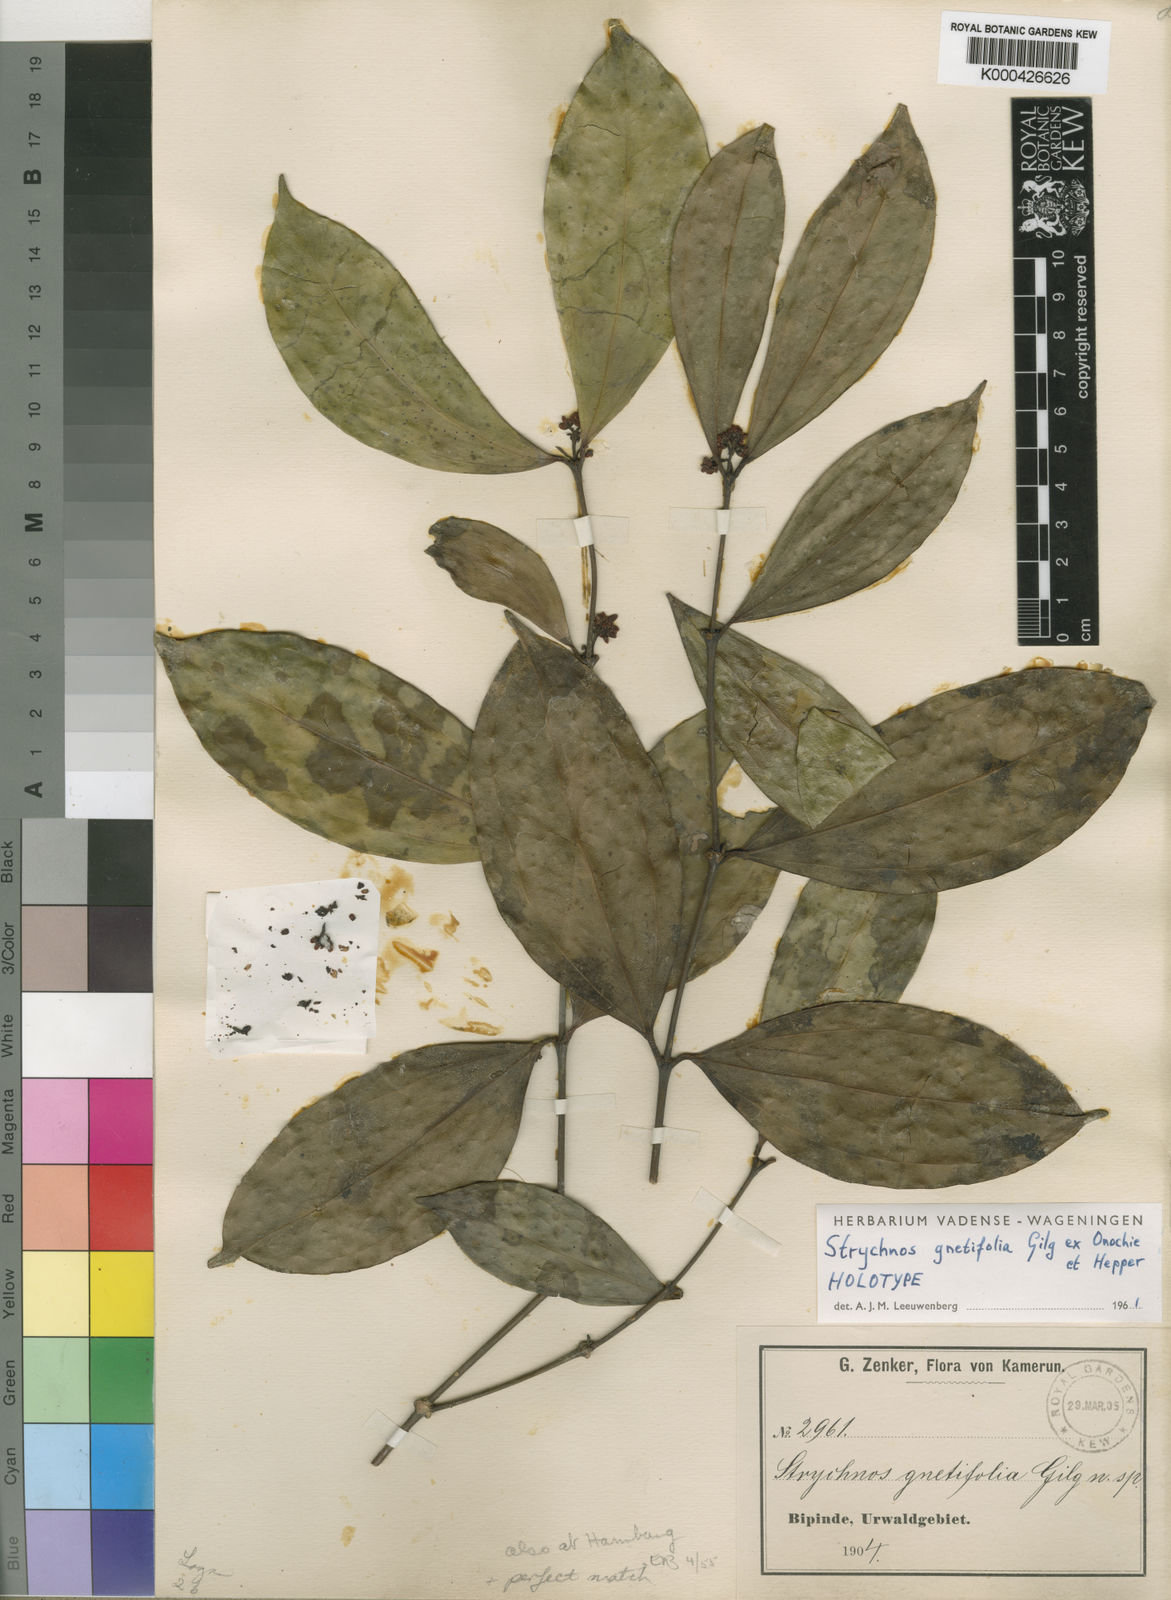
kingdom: Plantae
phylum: Tracheophyta
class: Magnoliopsida
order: Gentianales
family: Loganiaceae
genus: Strychnos
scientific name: Strychnos gnetifolia
